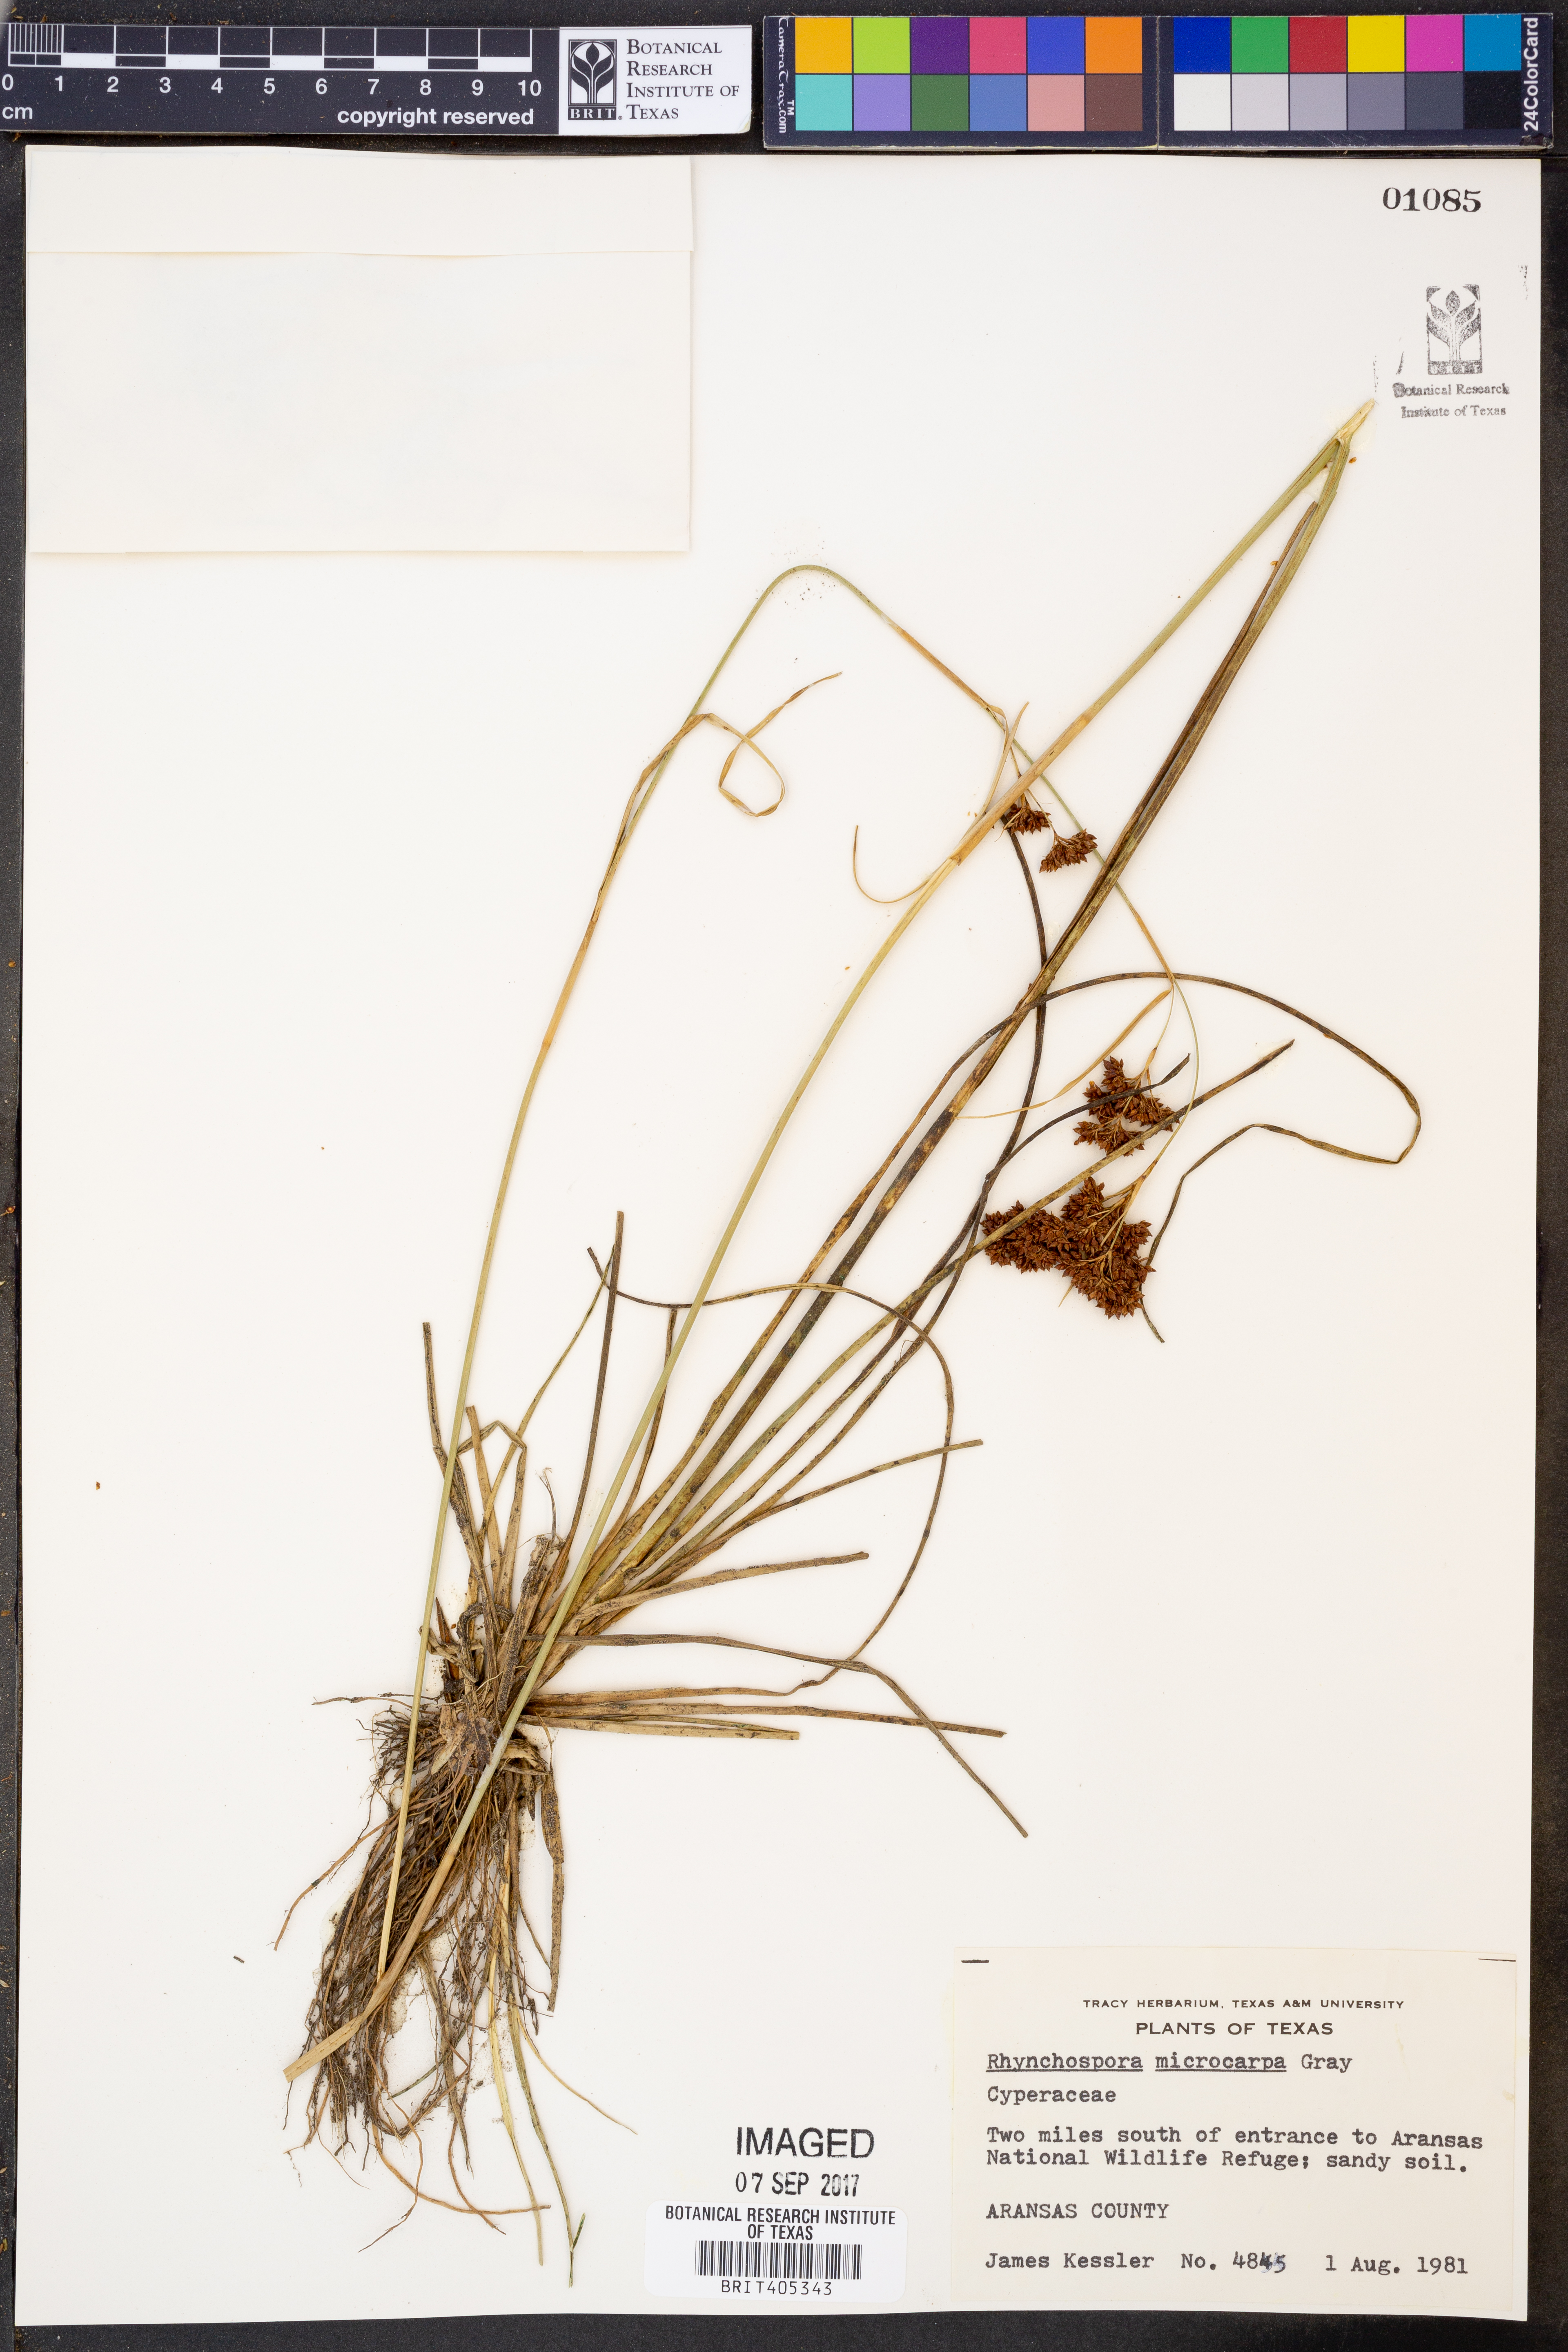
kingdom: Plantae
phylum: Tracheophyta
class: Liliopsida
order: Poales
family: Cyperaceae
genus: Rhynchospora
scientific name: Rhynchospora microcarpa
